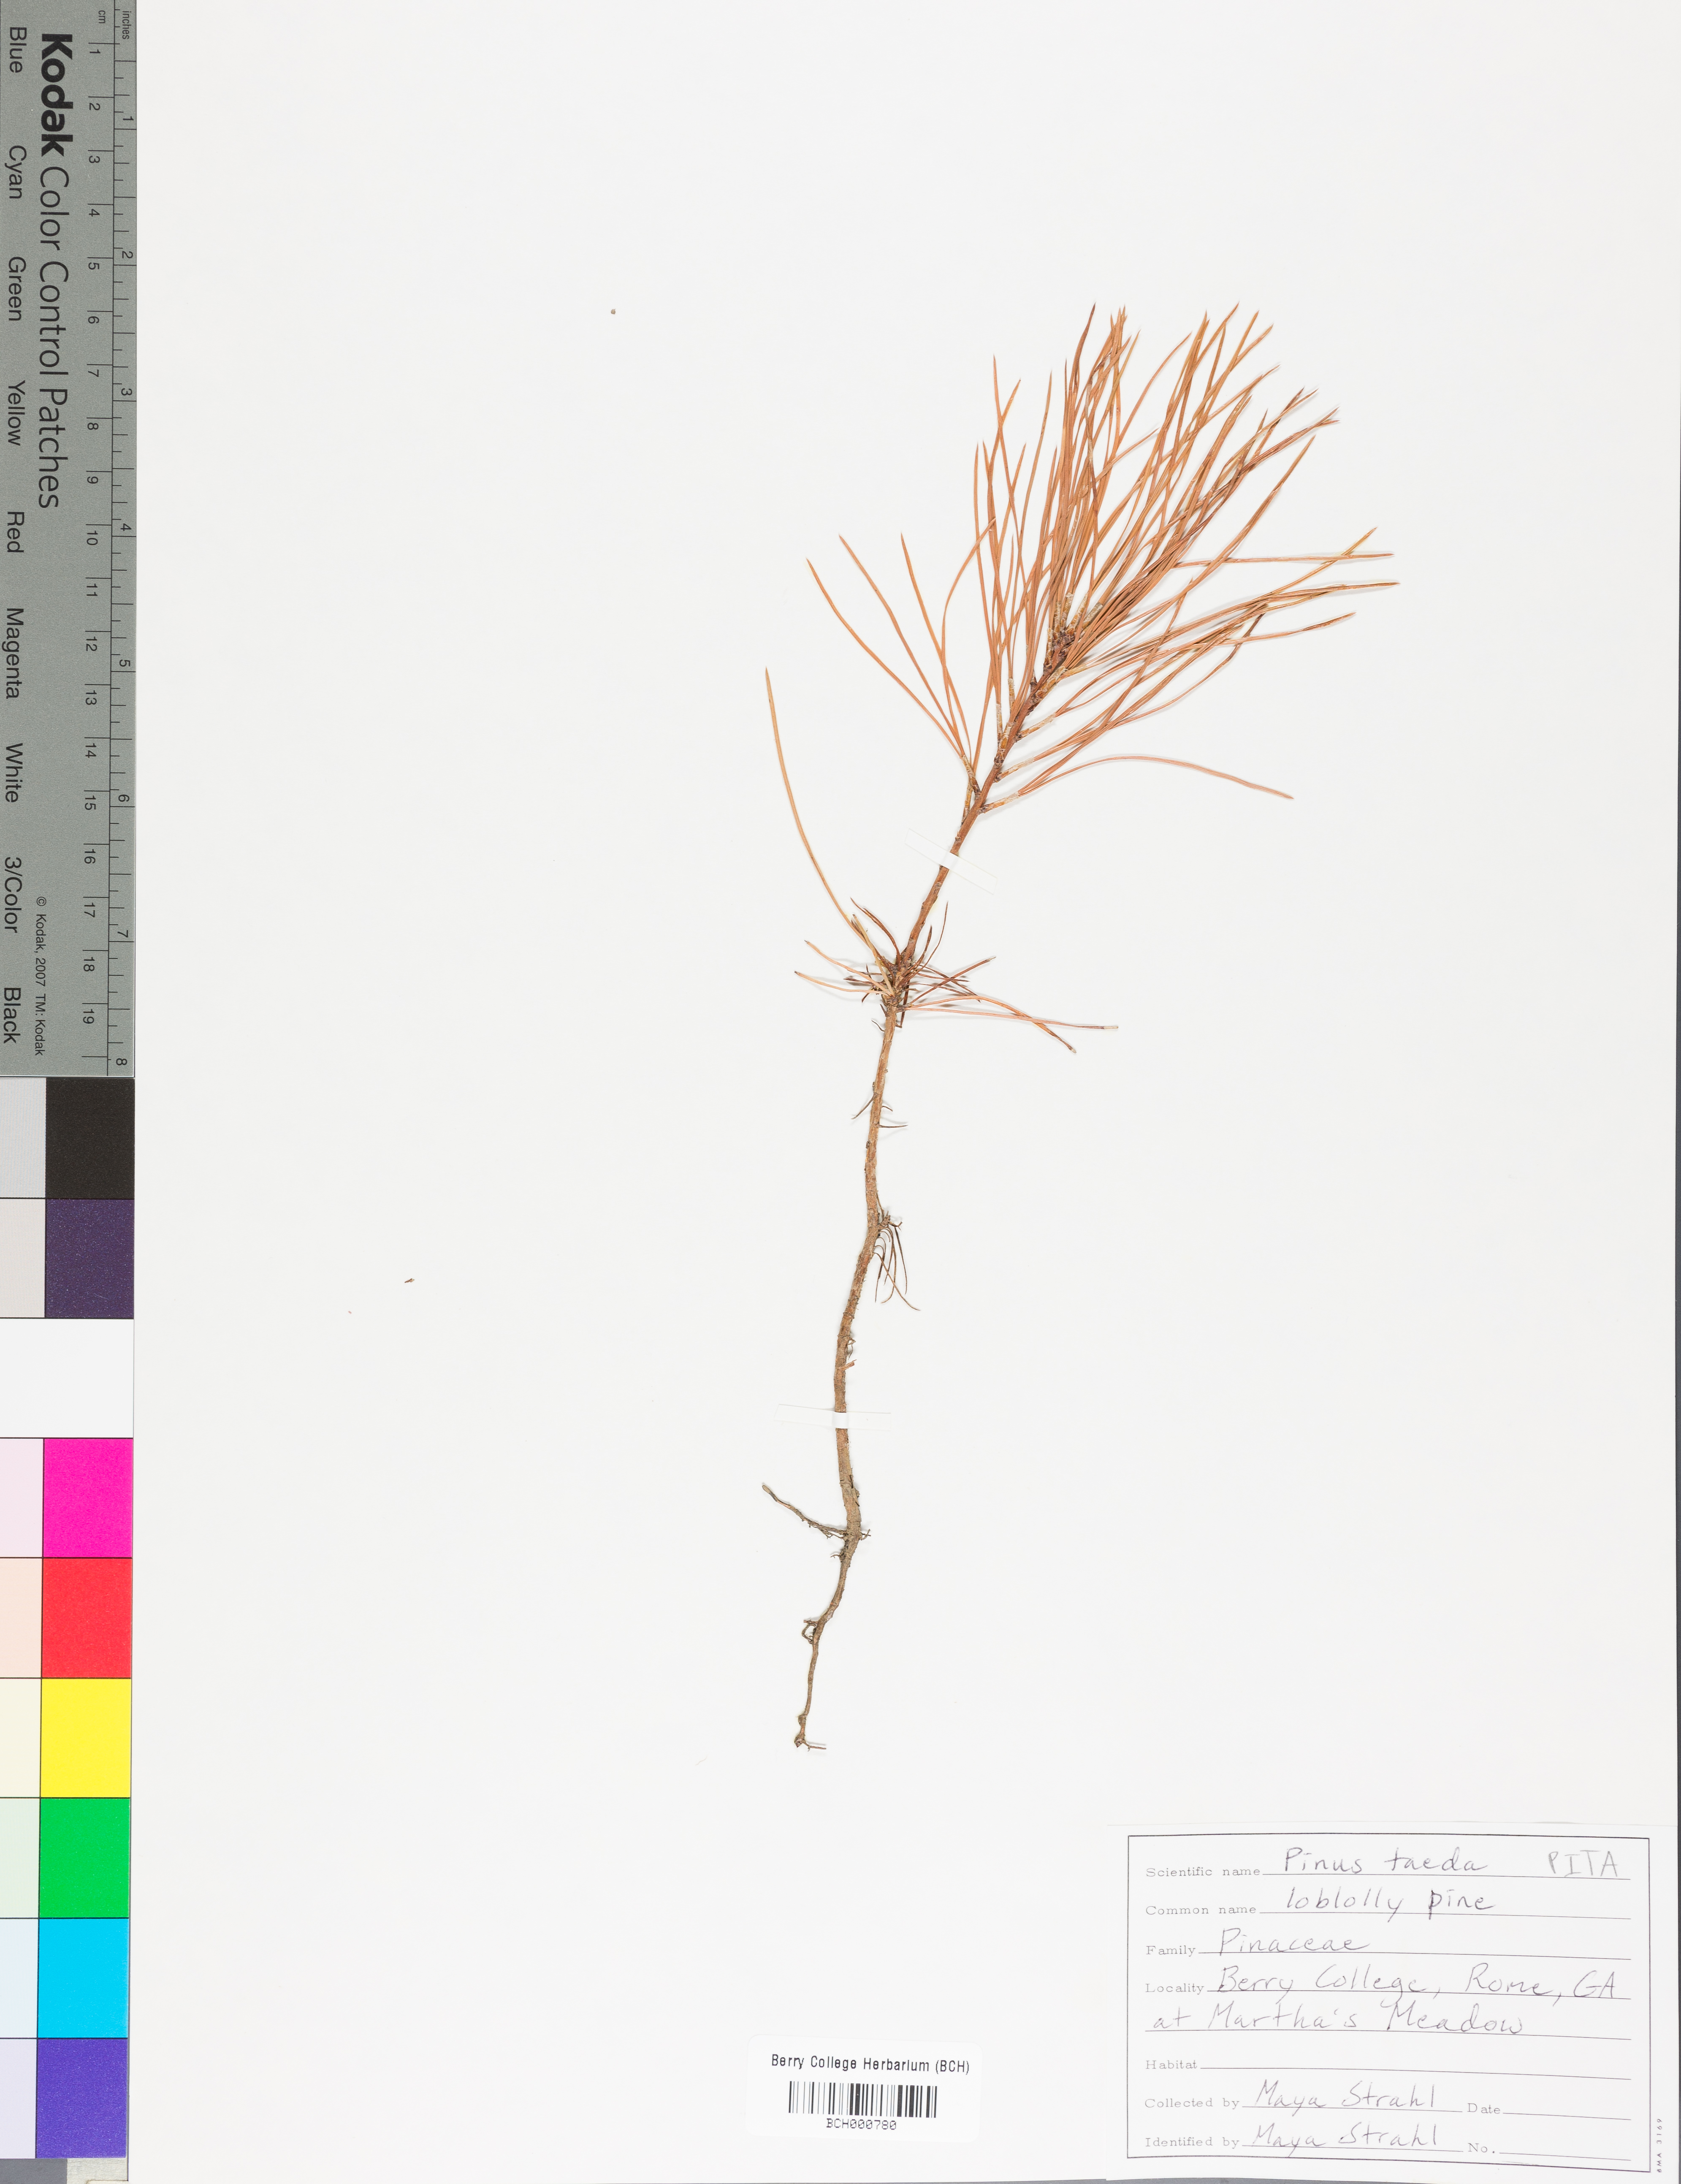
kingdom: Plantae
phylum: Tracheophyta
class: Pinopsida
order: Pinales
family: Pinaceae
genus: Pinus
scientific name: Pinus taeda
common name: Loblolly pine
